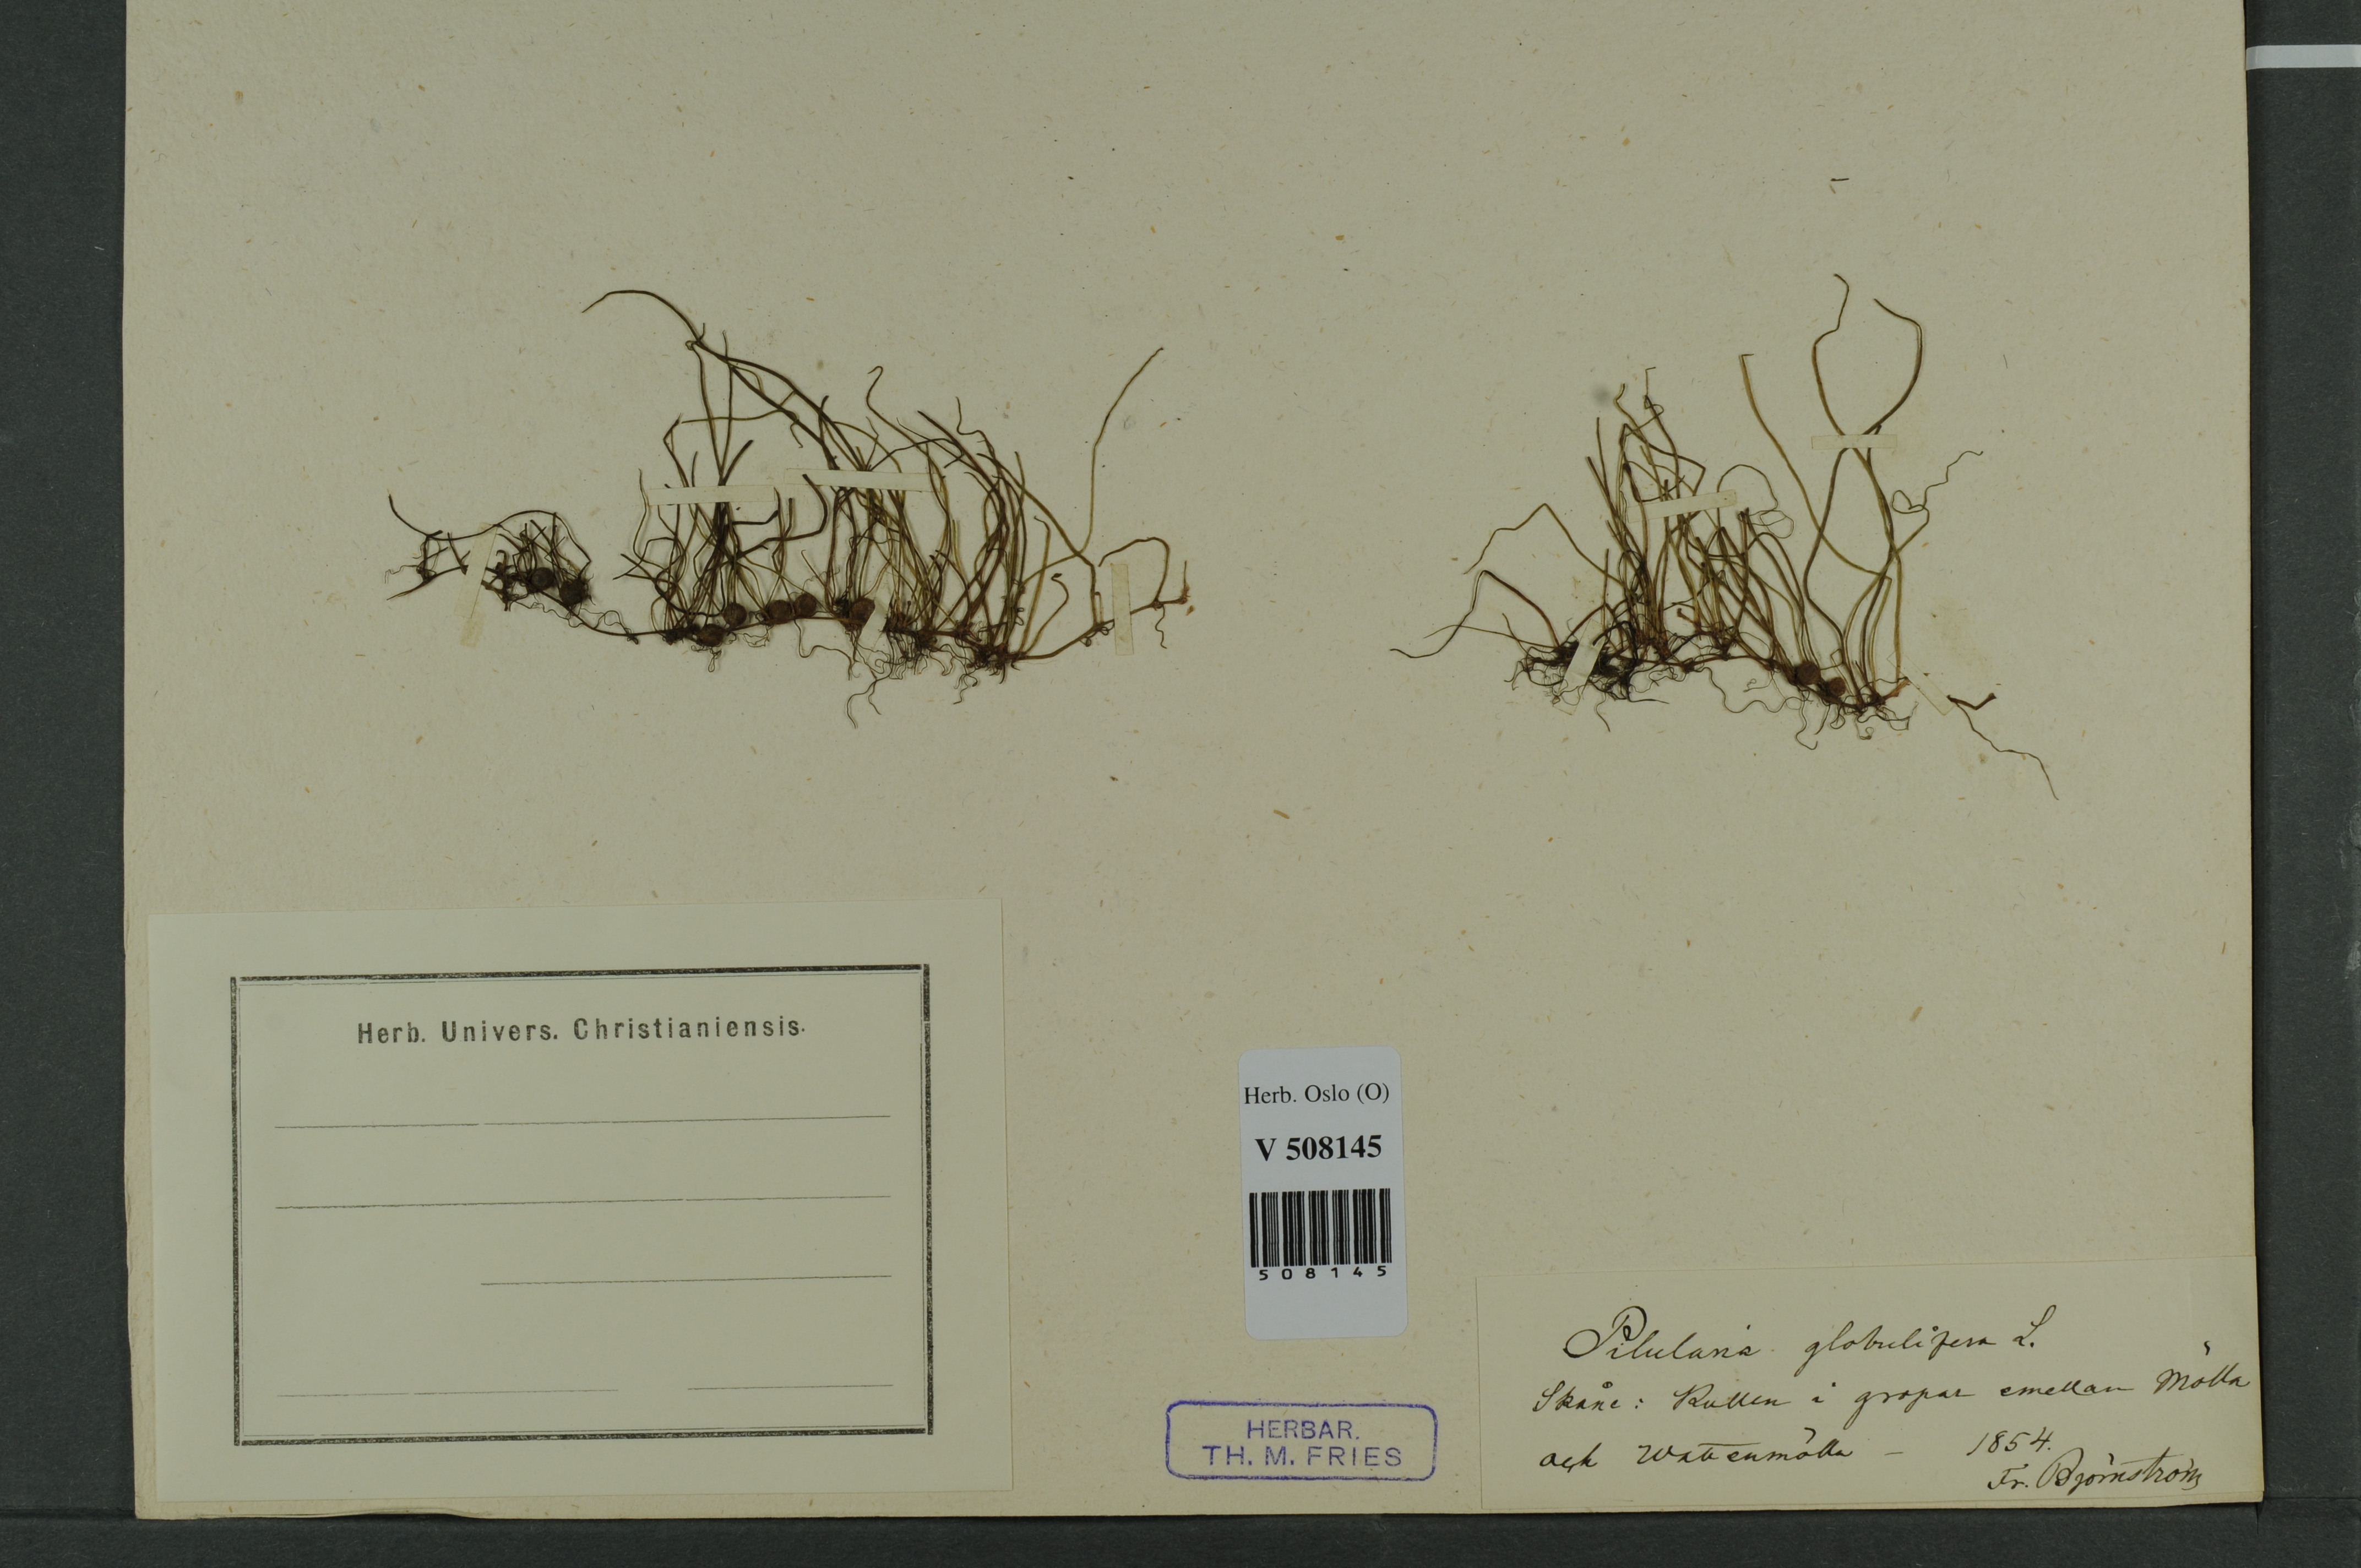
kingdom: Plantae
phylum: Tracheophyta
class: Polypodiopsida
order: Salviniales
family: Marsileaceae
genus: Pilularia
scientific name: Pilularia globulifera
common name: Pillwort
